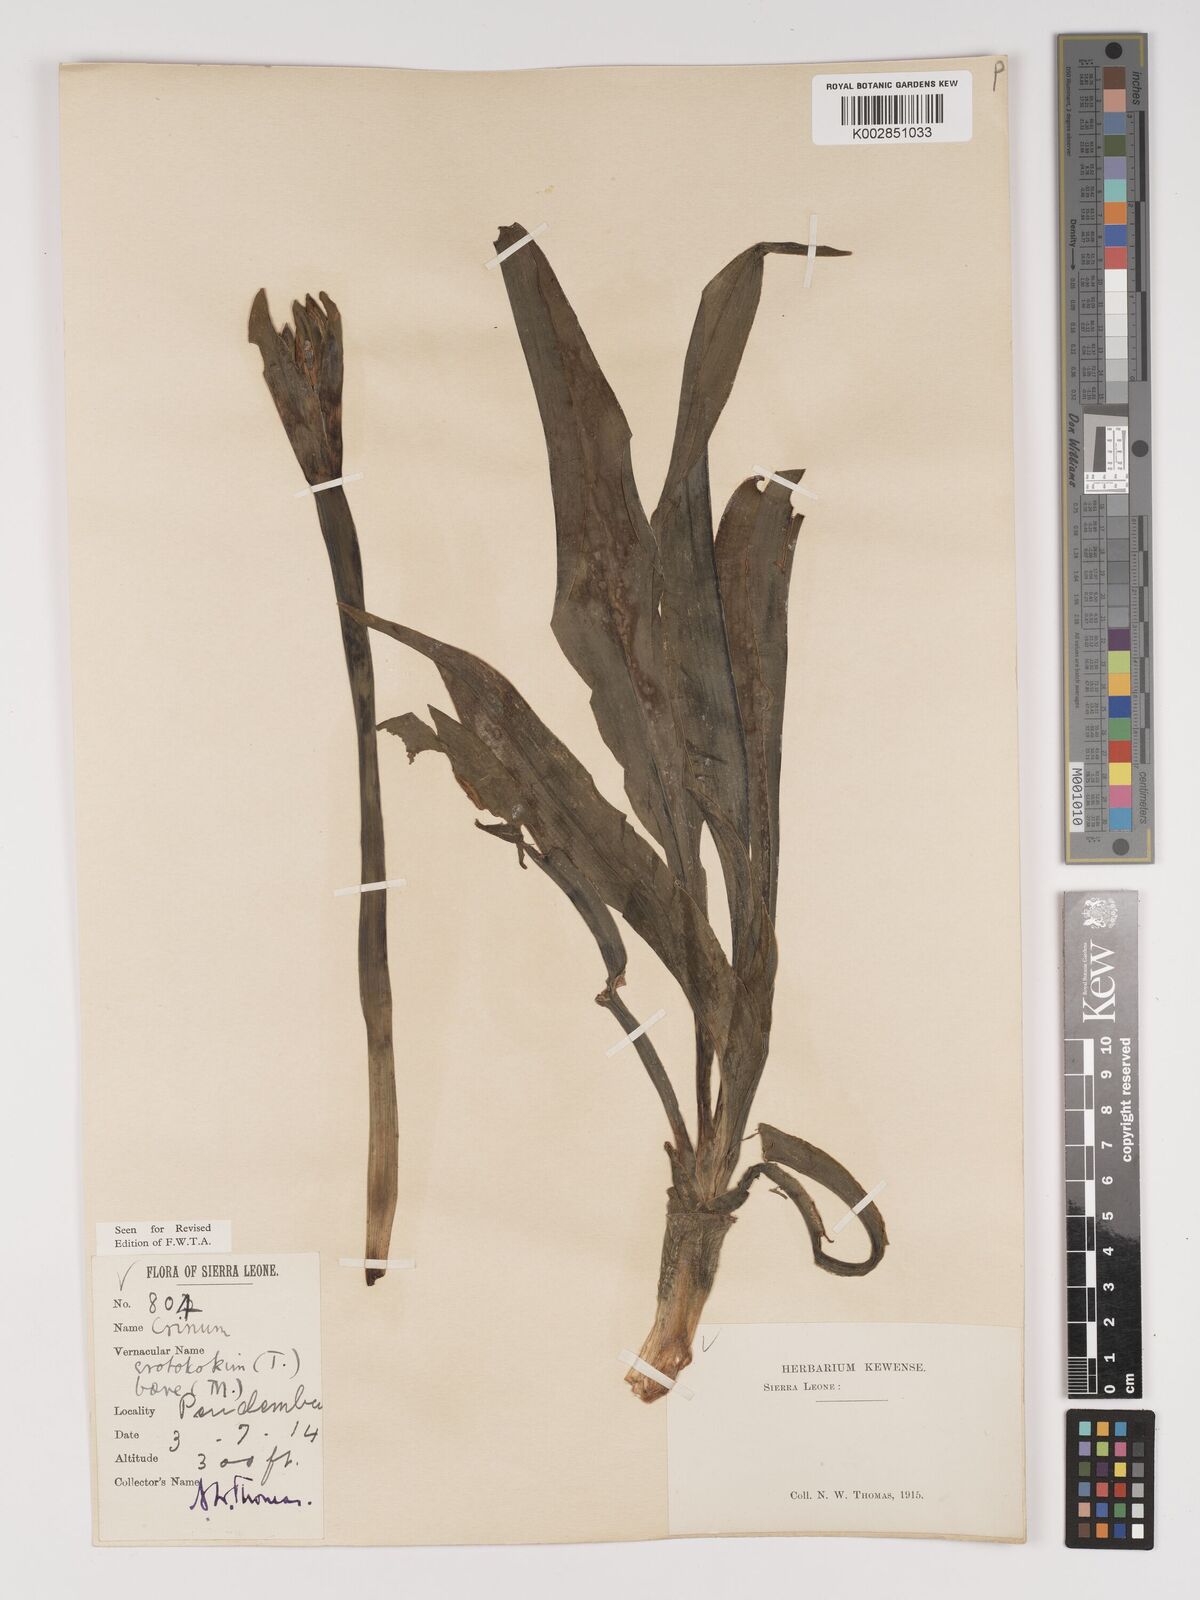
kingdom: Plantae
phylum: Tracheophyta
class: Liliopsida
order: Asparagales
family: Amaryllidaceae
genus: Crinum
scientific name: Crinum jagus
